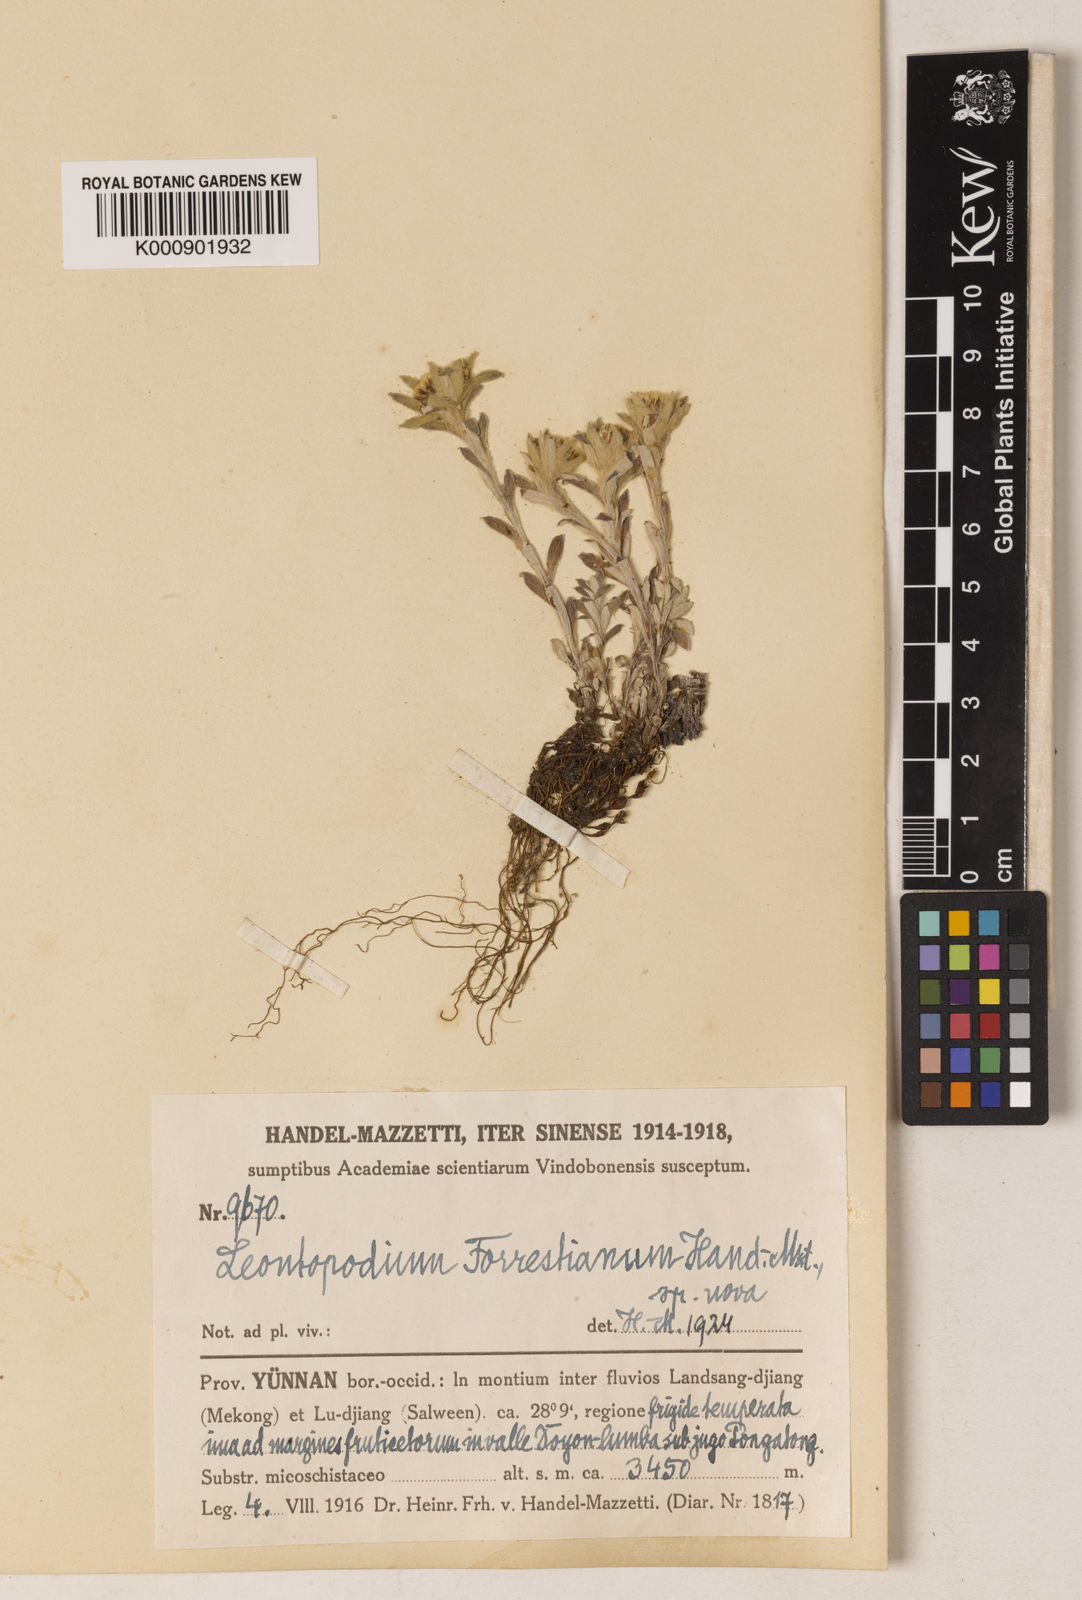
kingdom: Plantae
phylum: Tracheophyta
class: Magnoliopsida
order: Asterales
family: Asteraceae
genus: Leontopodium
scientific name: Leontopodium forrestianum
